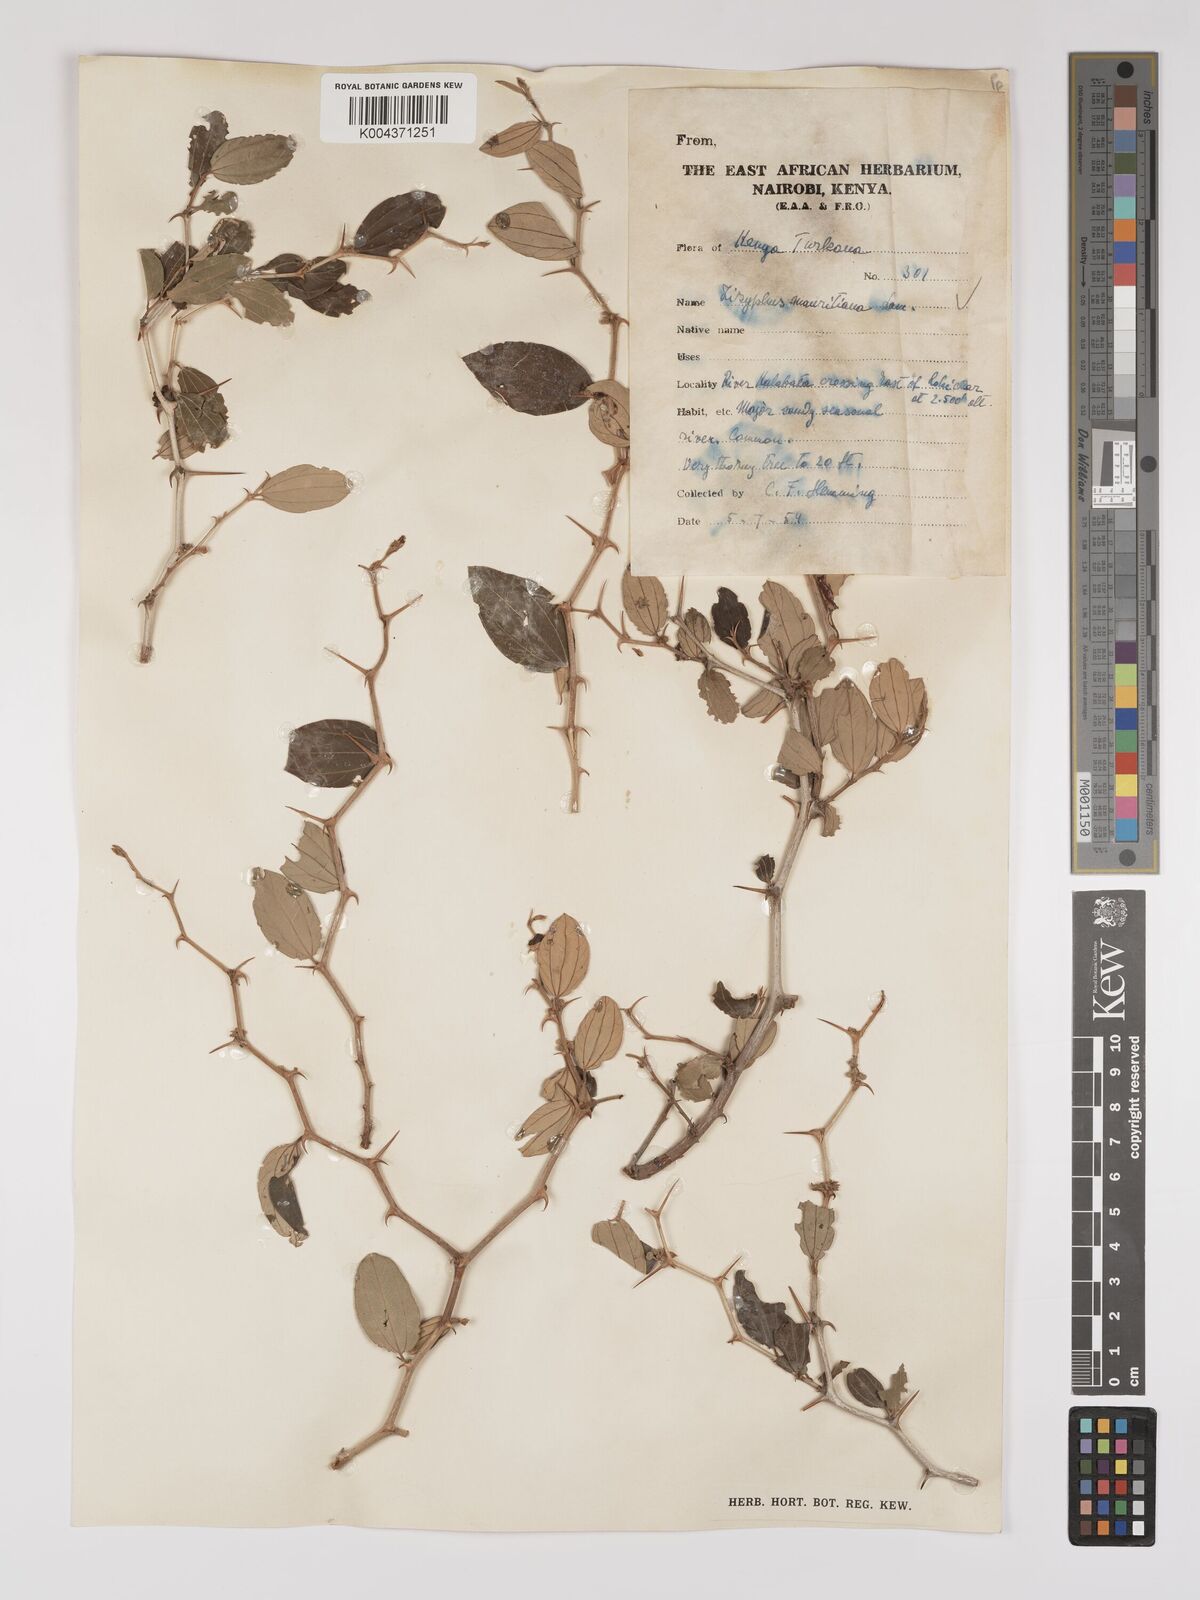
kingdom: Plantae
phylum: Tracheophyta
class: Magnoliopsida
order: Rosales
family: Rhamnaceae
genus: Ziziphus
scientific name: Ziziphus mauritiana
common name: Indian jujube
